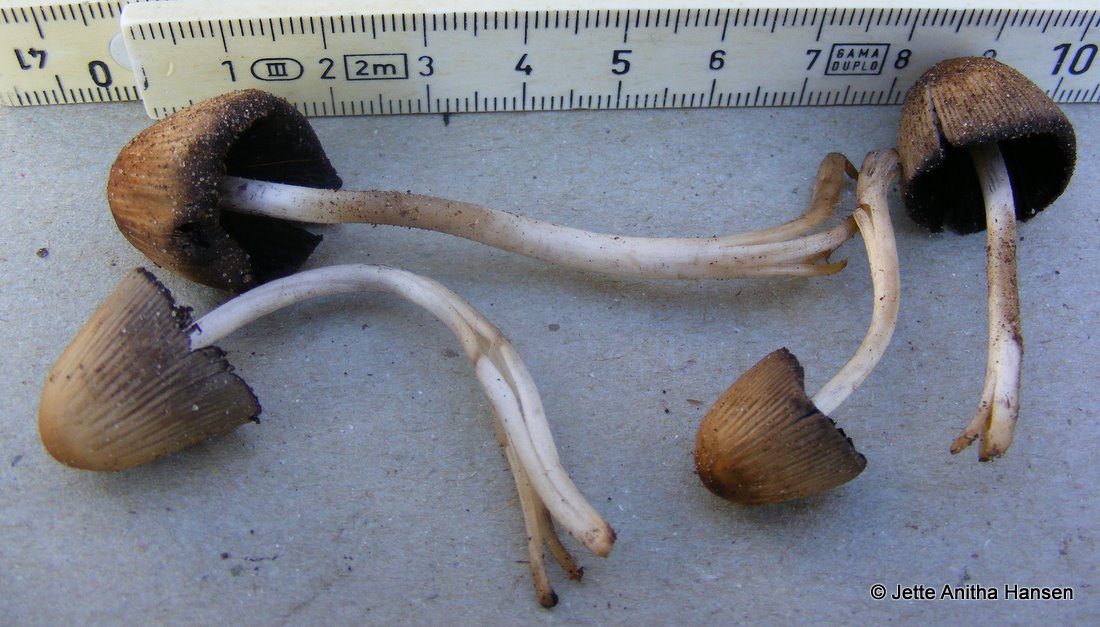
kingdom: Fungi
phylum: Basidiomycota
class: Agaricomycetes
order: Agaricales
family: Psathyrellaceae
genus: Coprinellus
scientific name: Coprinellus micaceus
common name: glimmer-blækhat
